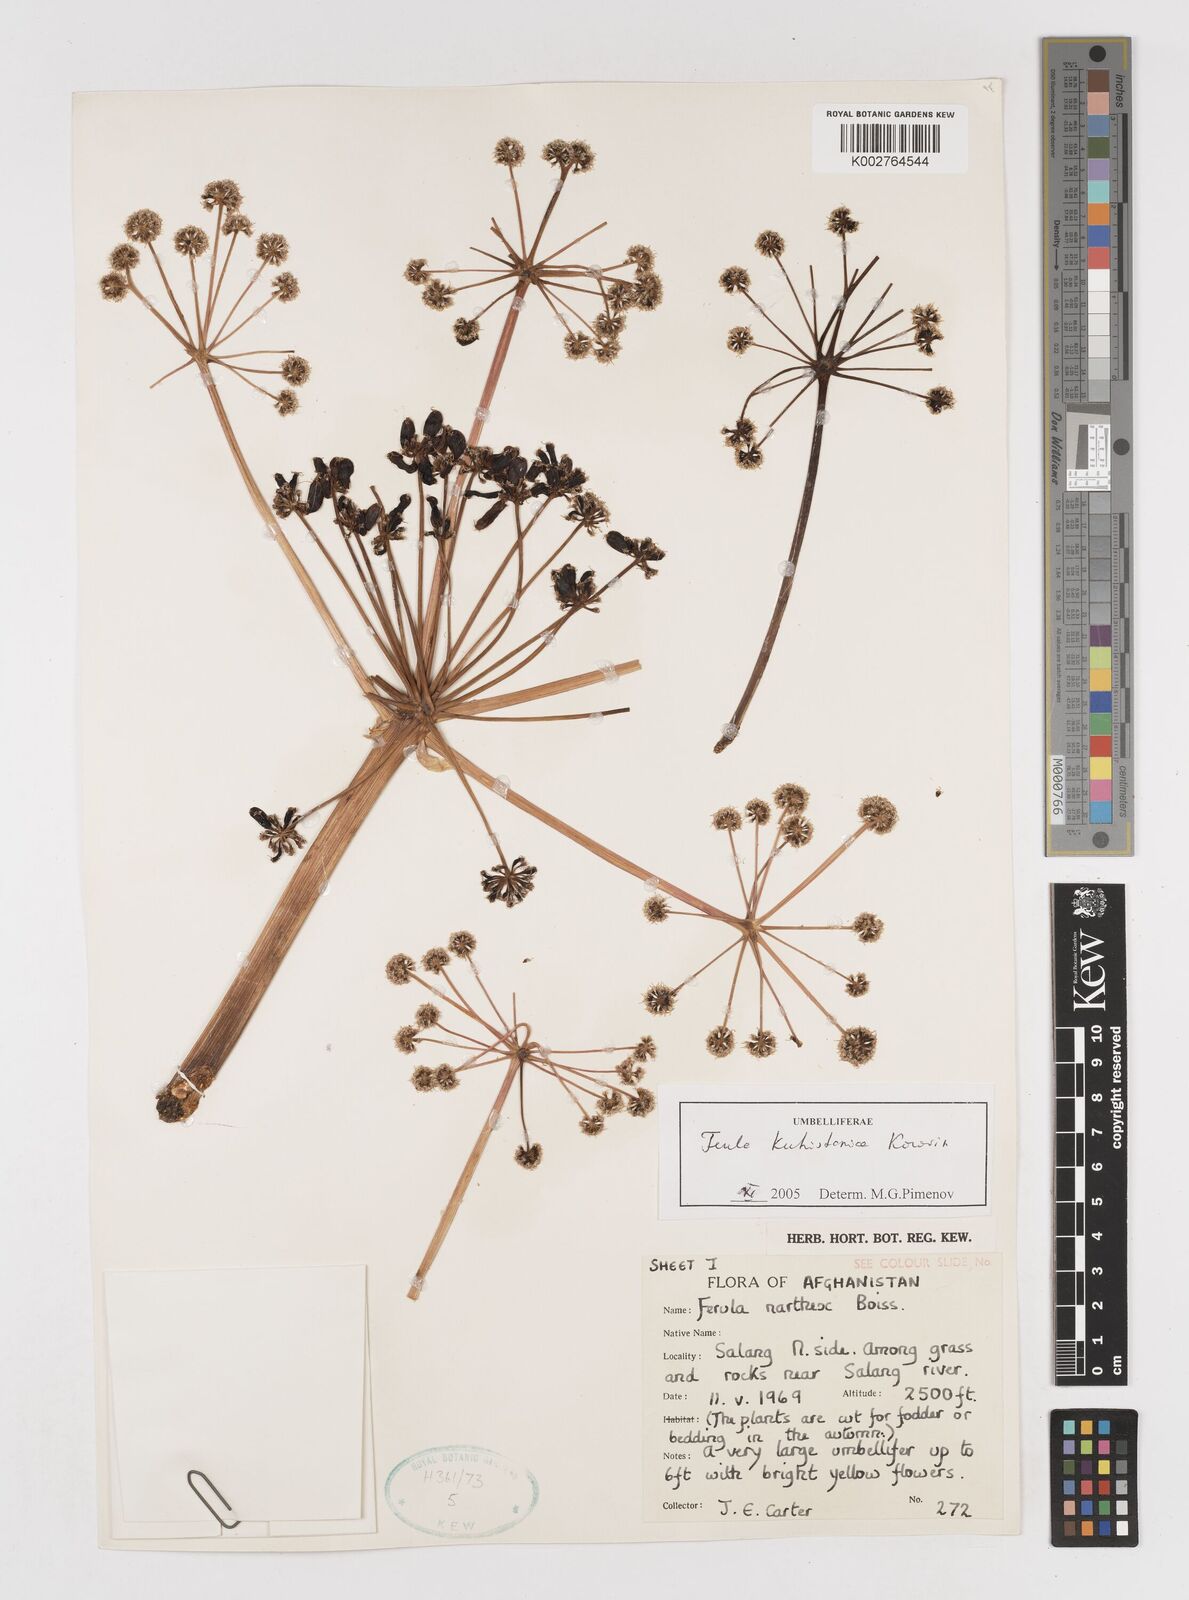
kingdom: Plantae
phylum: Tracheophyta
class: Magnoliopsida
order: Apiales
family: Apiaceae
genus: Ferula
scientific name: Ferula kuhistanica
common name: Kamol
